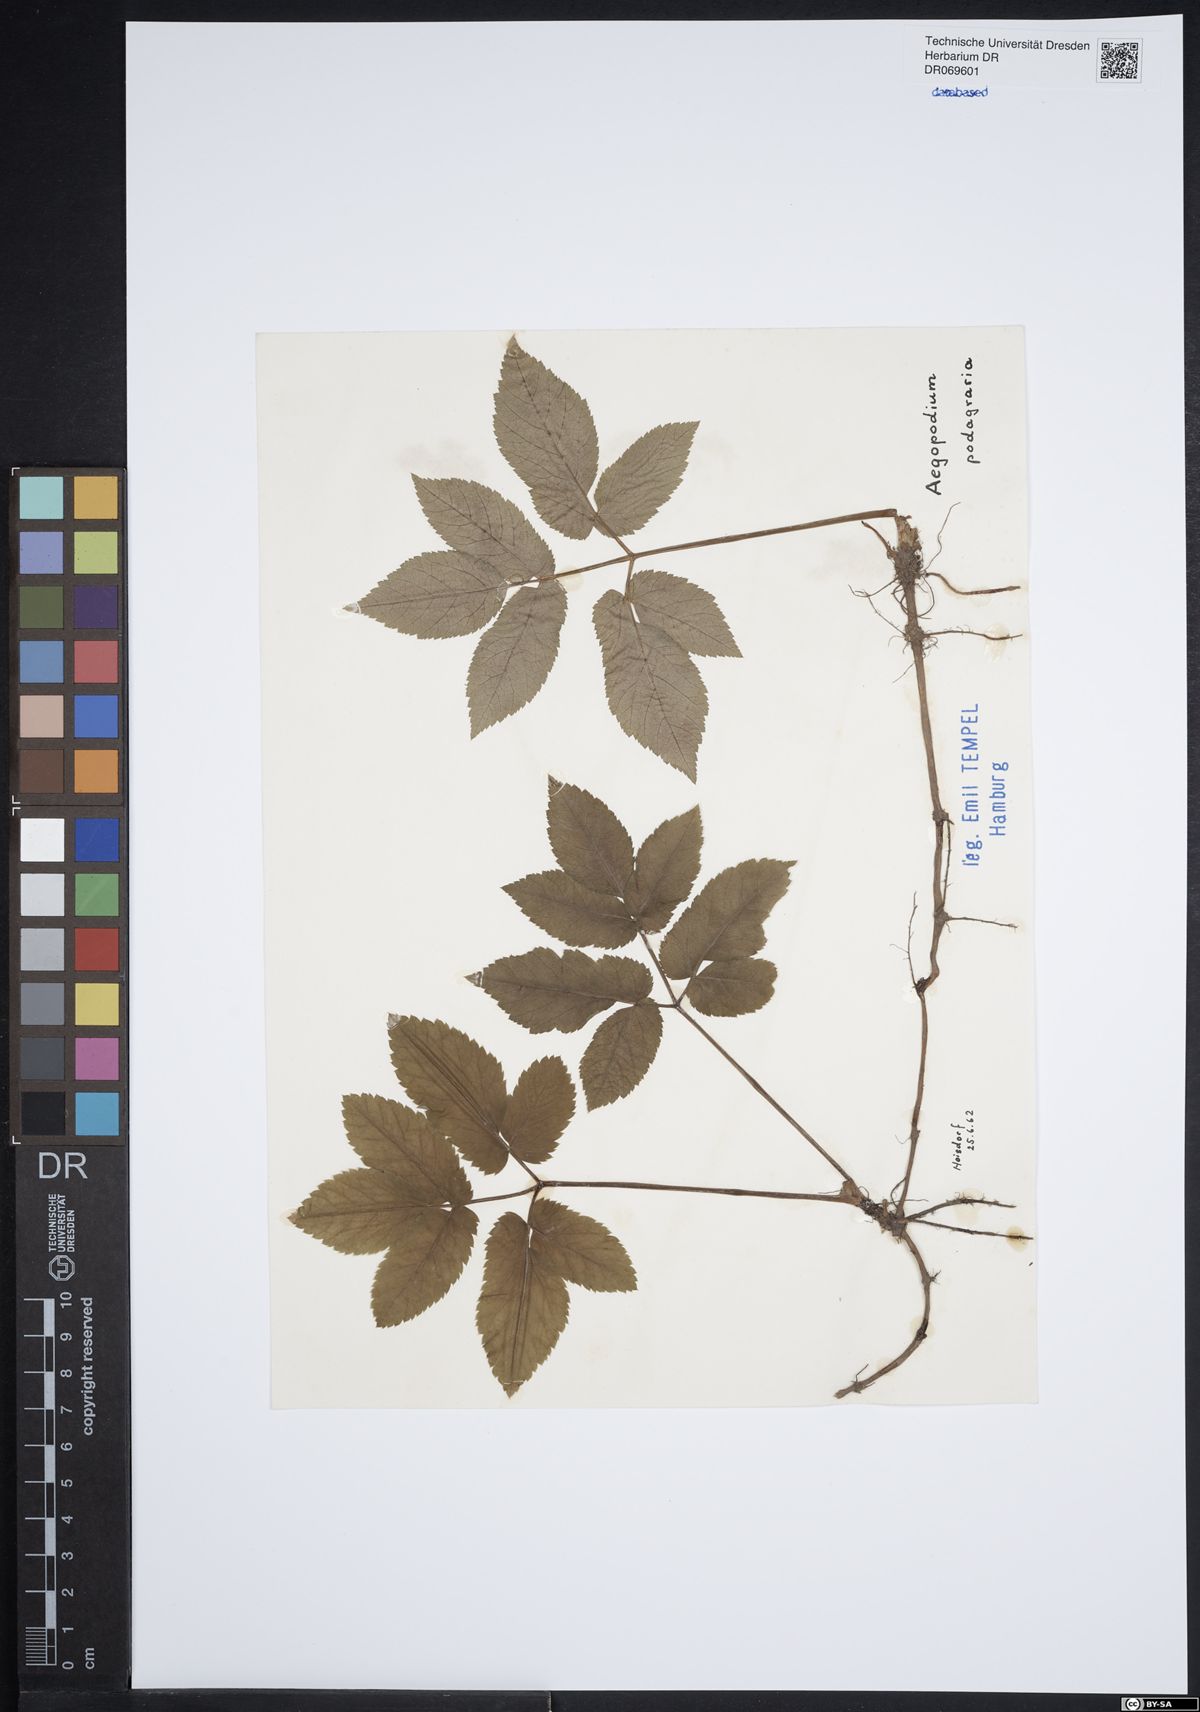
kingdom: Plantae
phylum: Tracheophyta
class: Magnoliopsida
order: Apiales
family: Apiaceae
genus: Aegopodium
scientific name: Aegopodium podagraria
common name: Ground-elder
